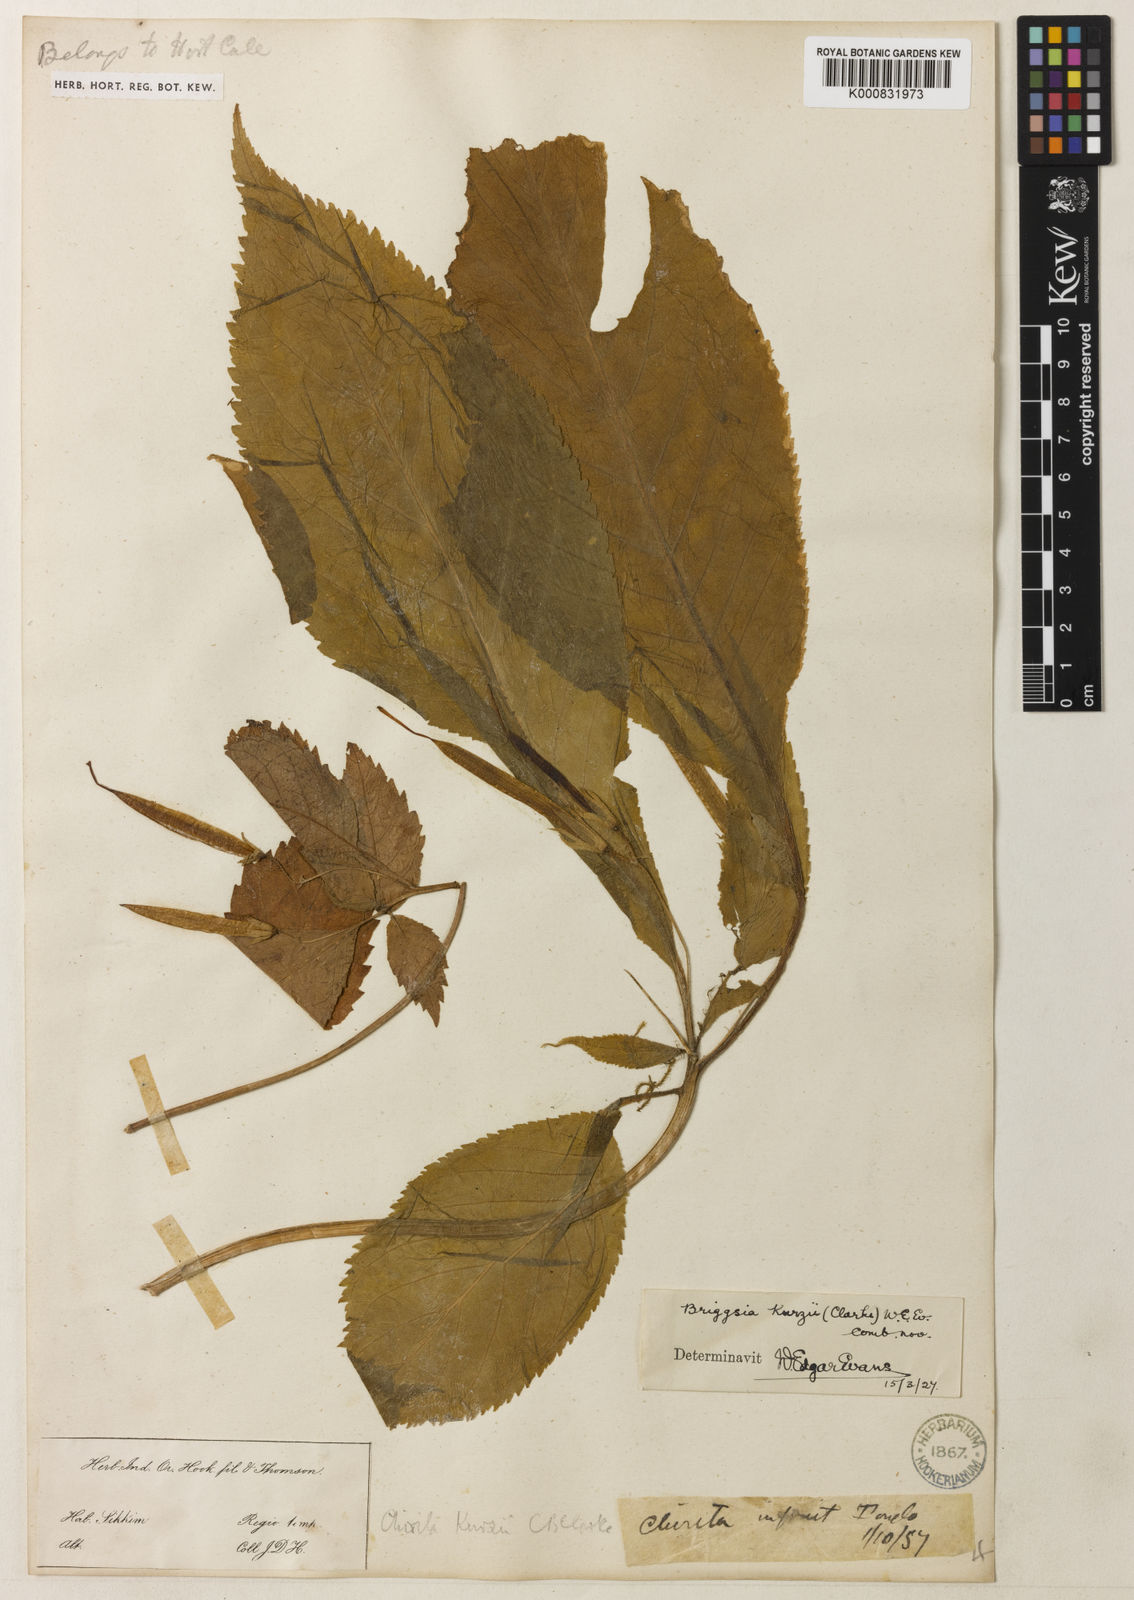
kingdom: Plantae
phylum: Tracheophyta
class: Magnoliopsida
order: Lamiales
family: Gesneriaceae
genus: Loxostigma
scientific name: Loxostigma kurzii
